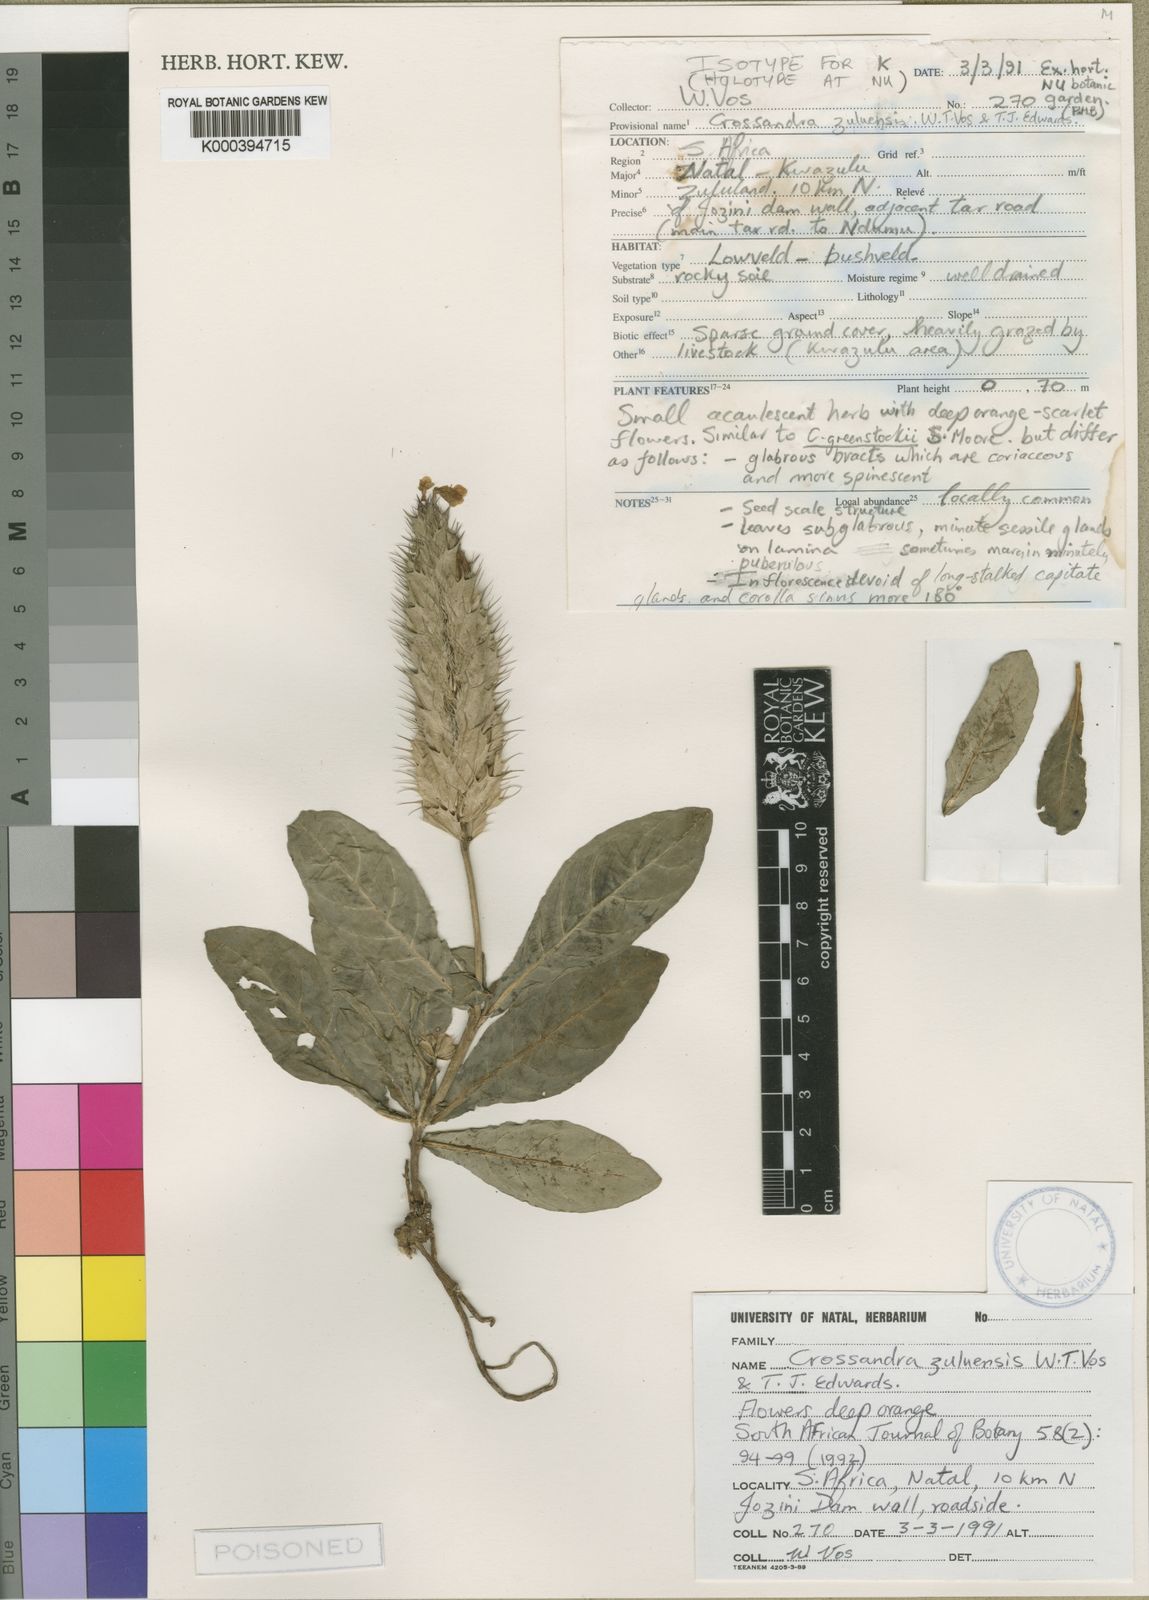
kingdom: Plantae
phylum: Tracheophyta
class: Magnoliopsida
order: Lamiales
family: Acanthaceae
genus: Crossandra
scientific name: Crossandra fruticulosa
